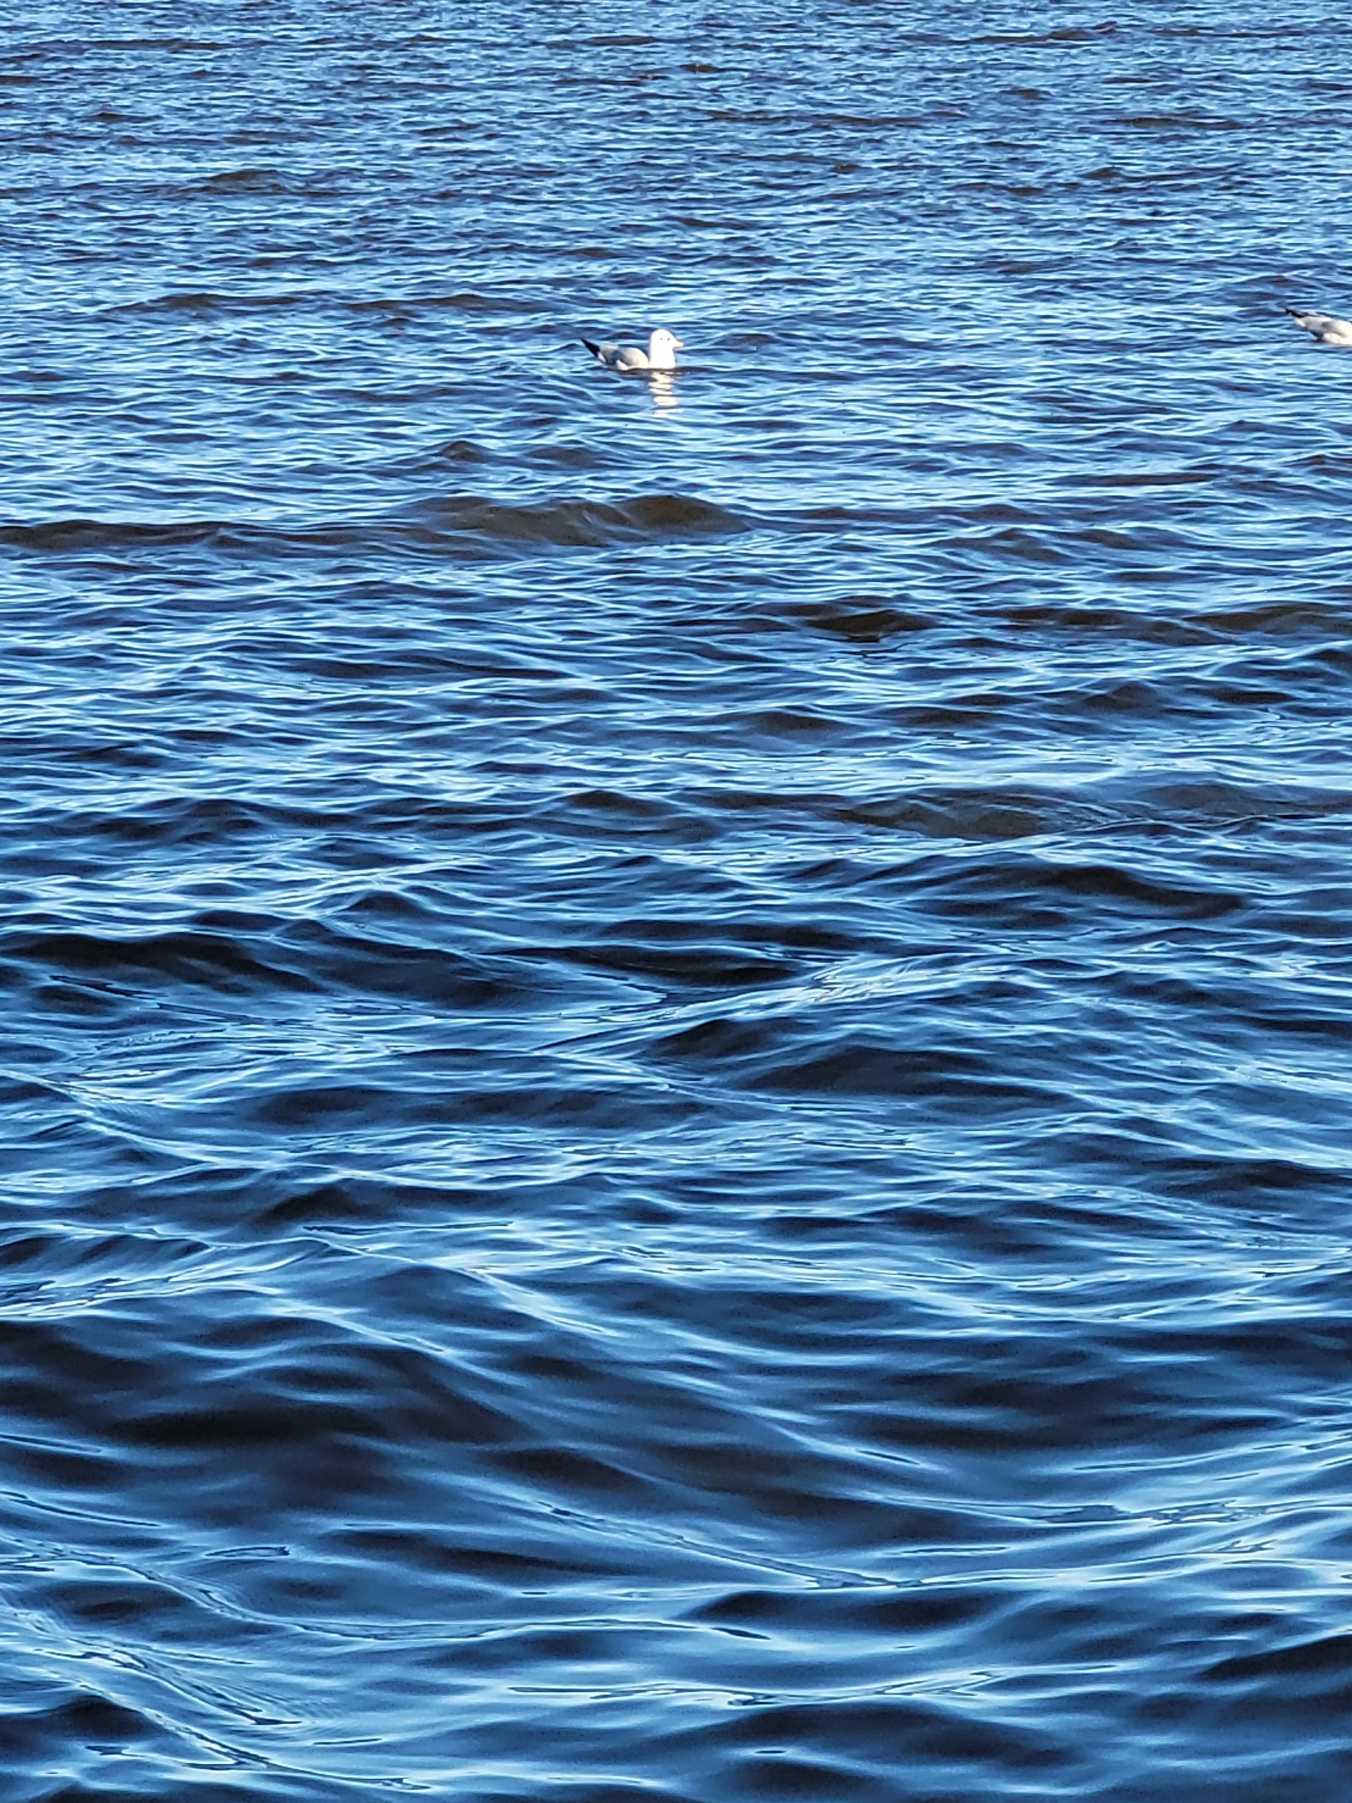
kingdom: Animalia
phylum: Chordata
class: Aves
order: Charadriiformes
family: Laridae
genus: Chroicocephalus
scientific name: Chroicocephalus ridibundus
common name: Hættemåge
